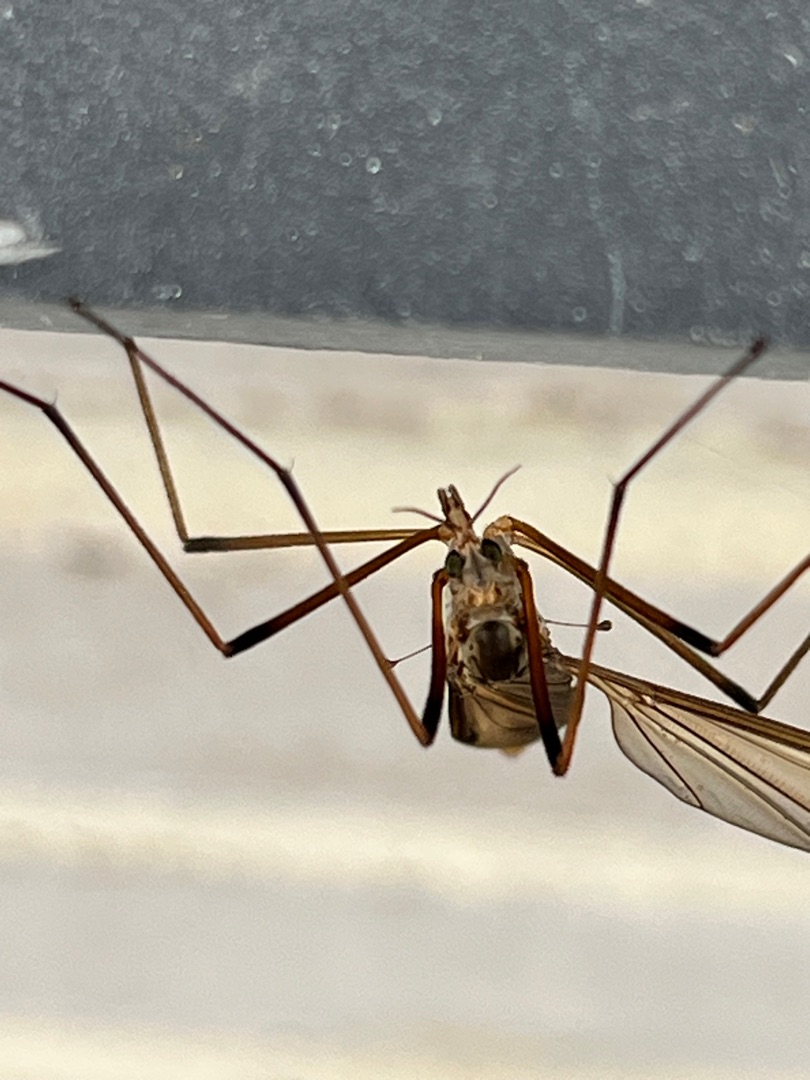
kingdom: Animalia
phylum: Arthropoda
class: Insecta
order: Diptera
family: Tipulidae
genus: Tipula
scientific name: Tipula paludosa
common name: Mosestankelben
